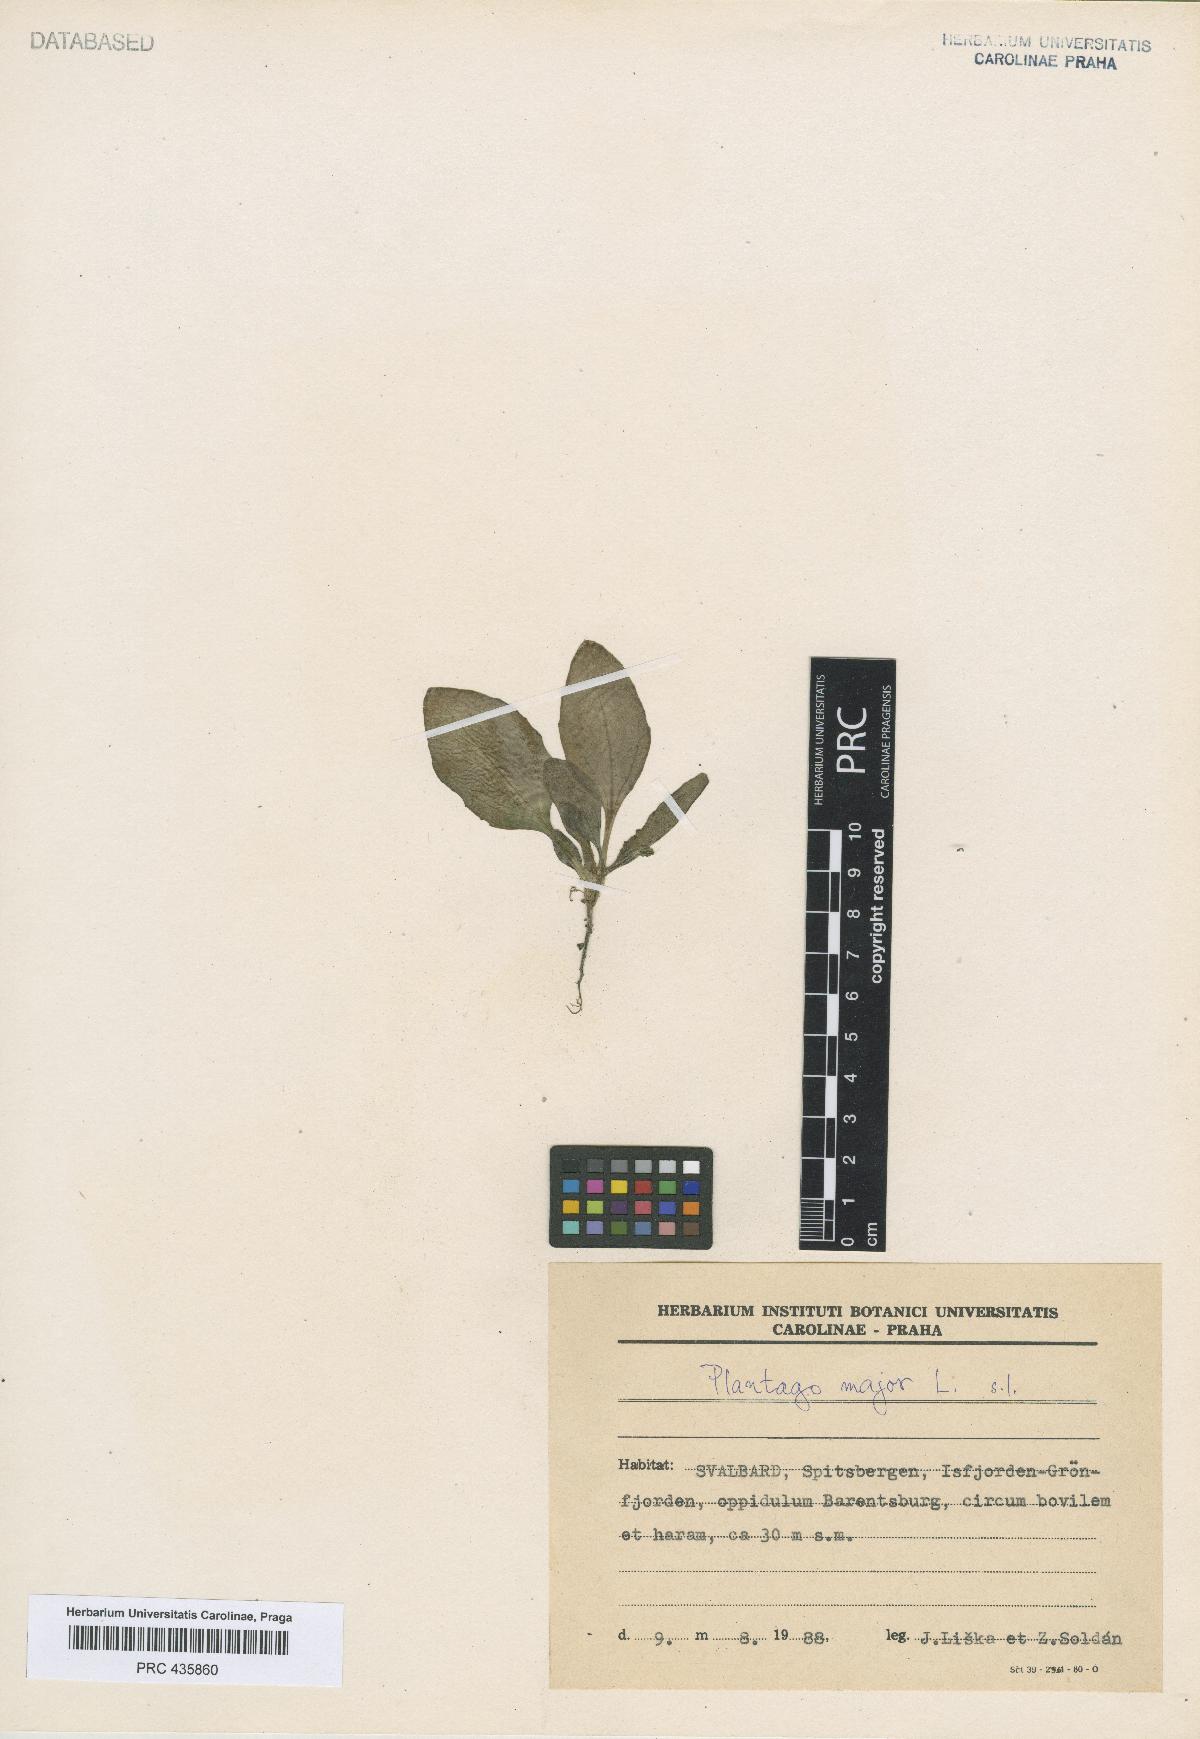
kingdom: Plantae
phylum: Tracheophyta
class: Magnoliopsida
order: Lamiales
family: Plantaginaceae
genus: Plantago
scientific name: Plantago major
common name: Common plantain
